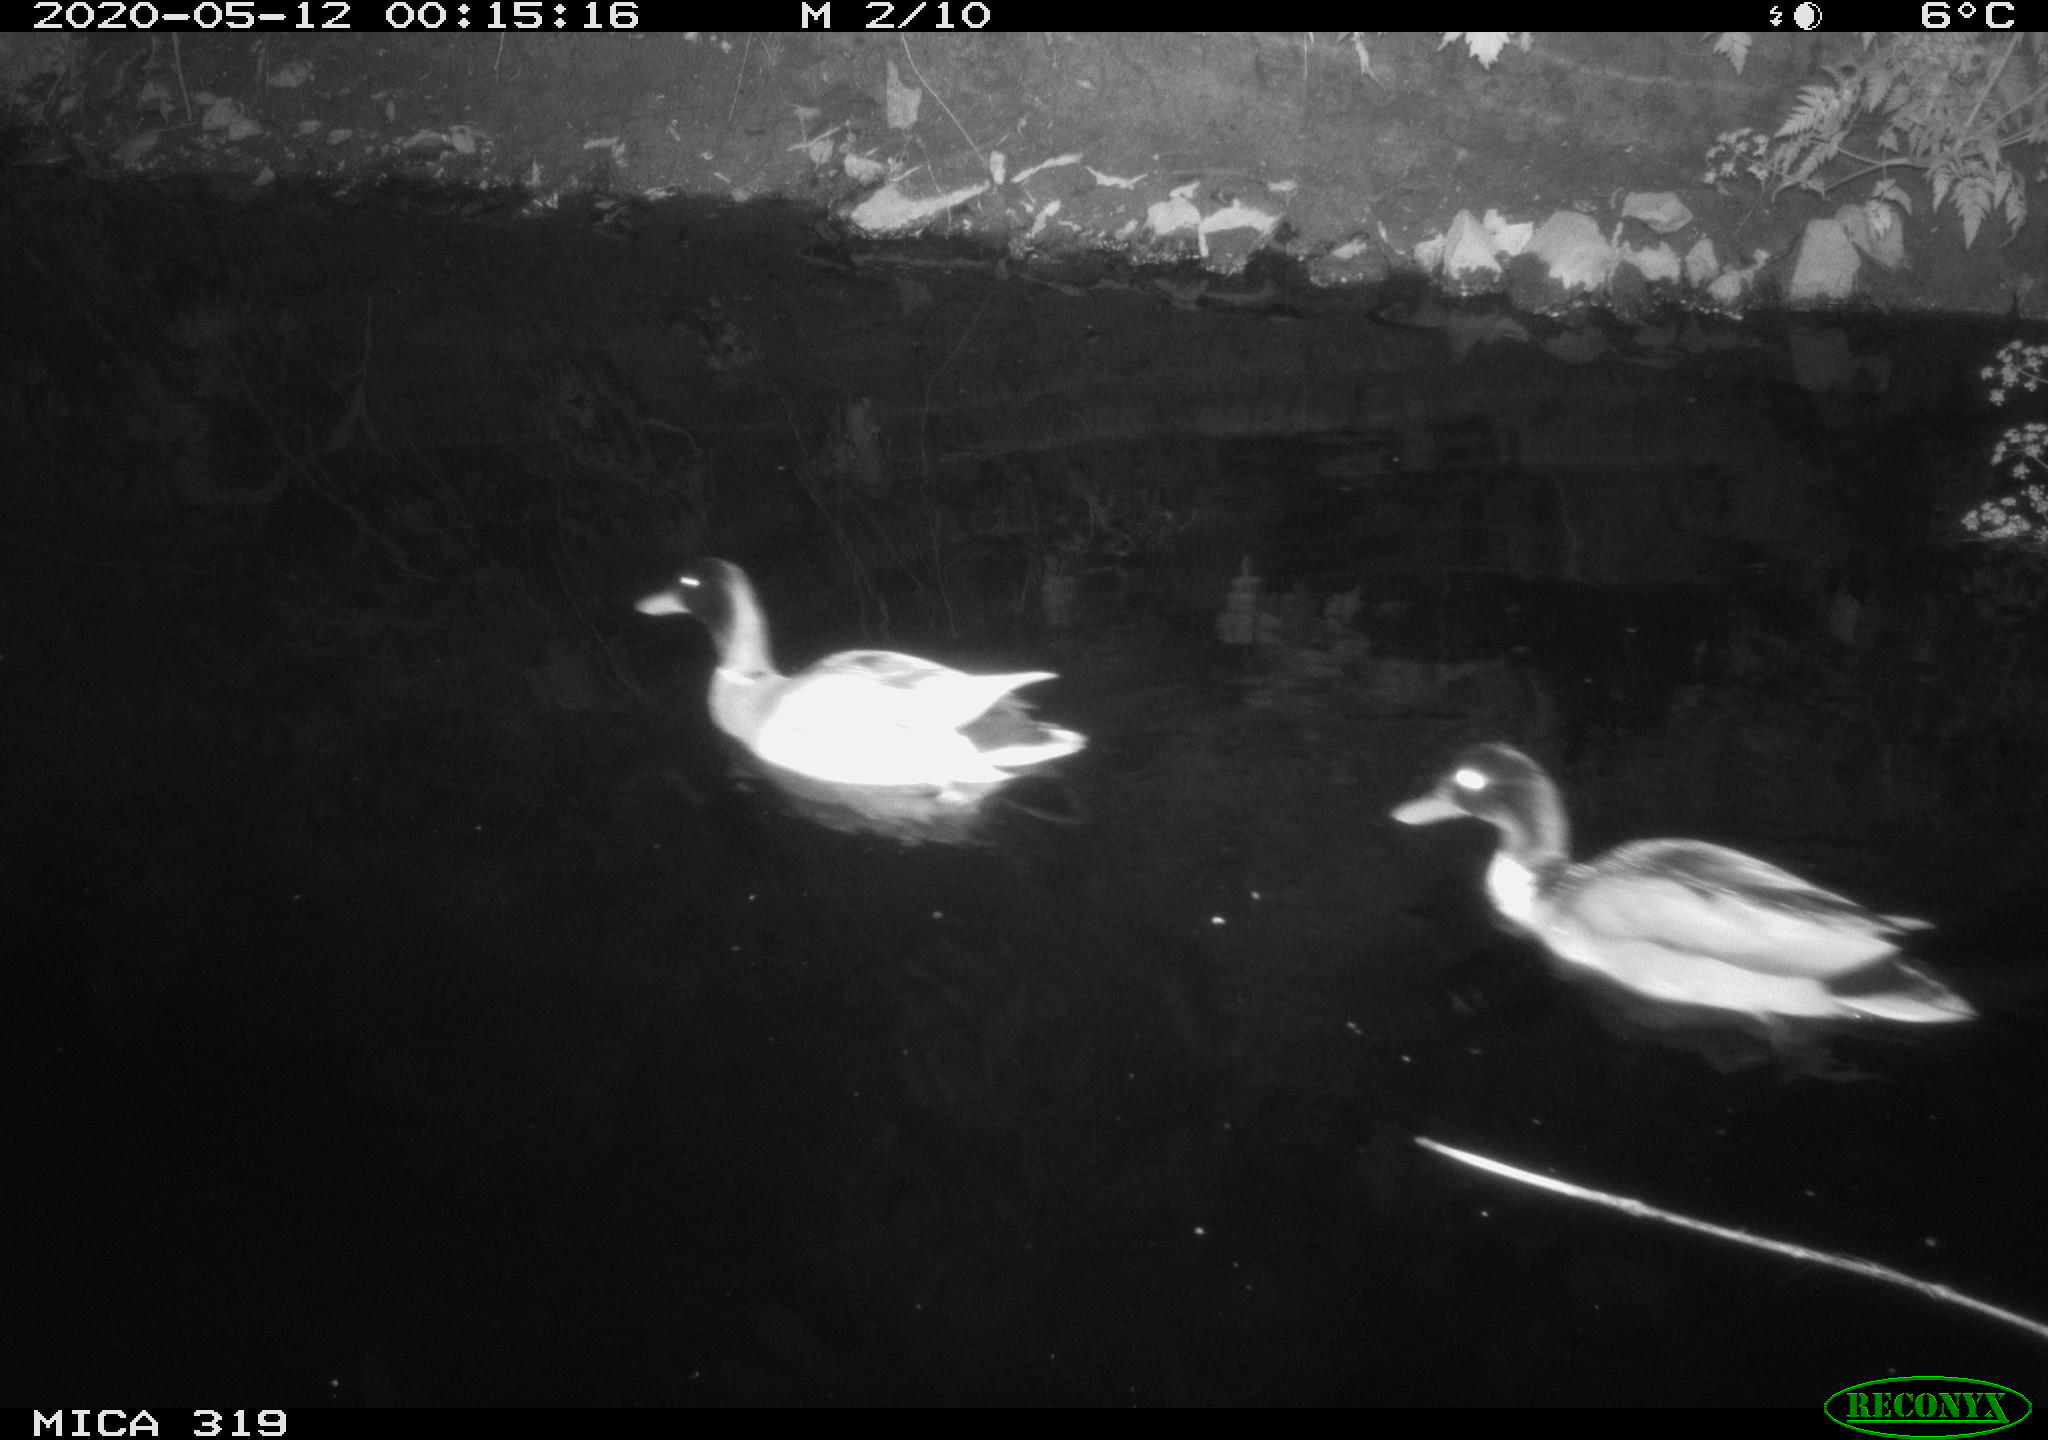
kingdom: Animalia
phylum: Chordata
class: Aves
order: Anseriformes
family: Anatidae
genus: Anas
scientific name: Anas platyrhynchos
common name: Mallard
